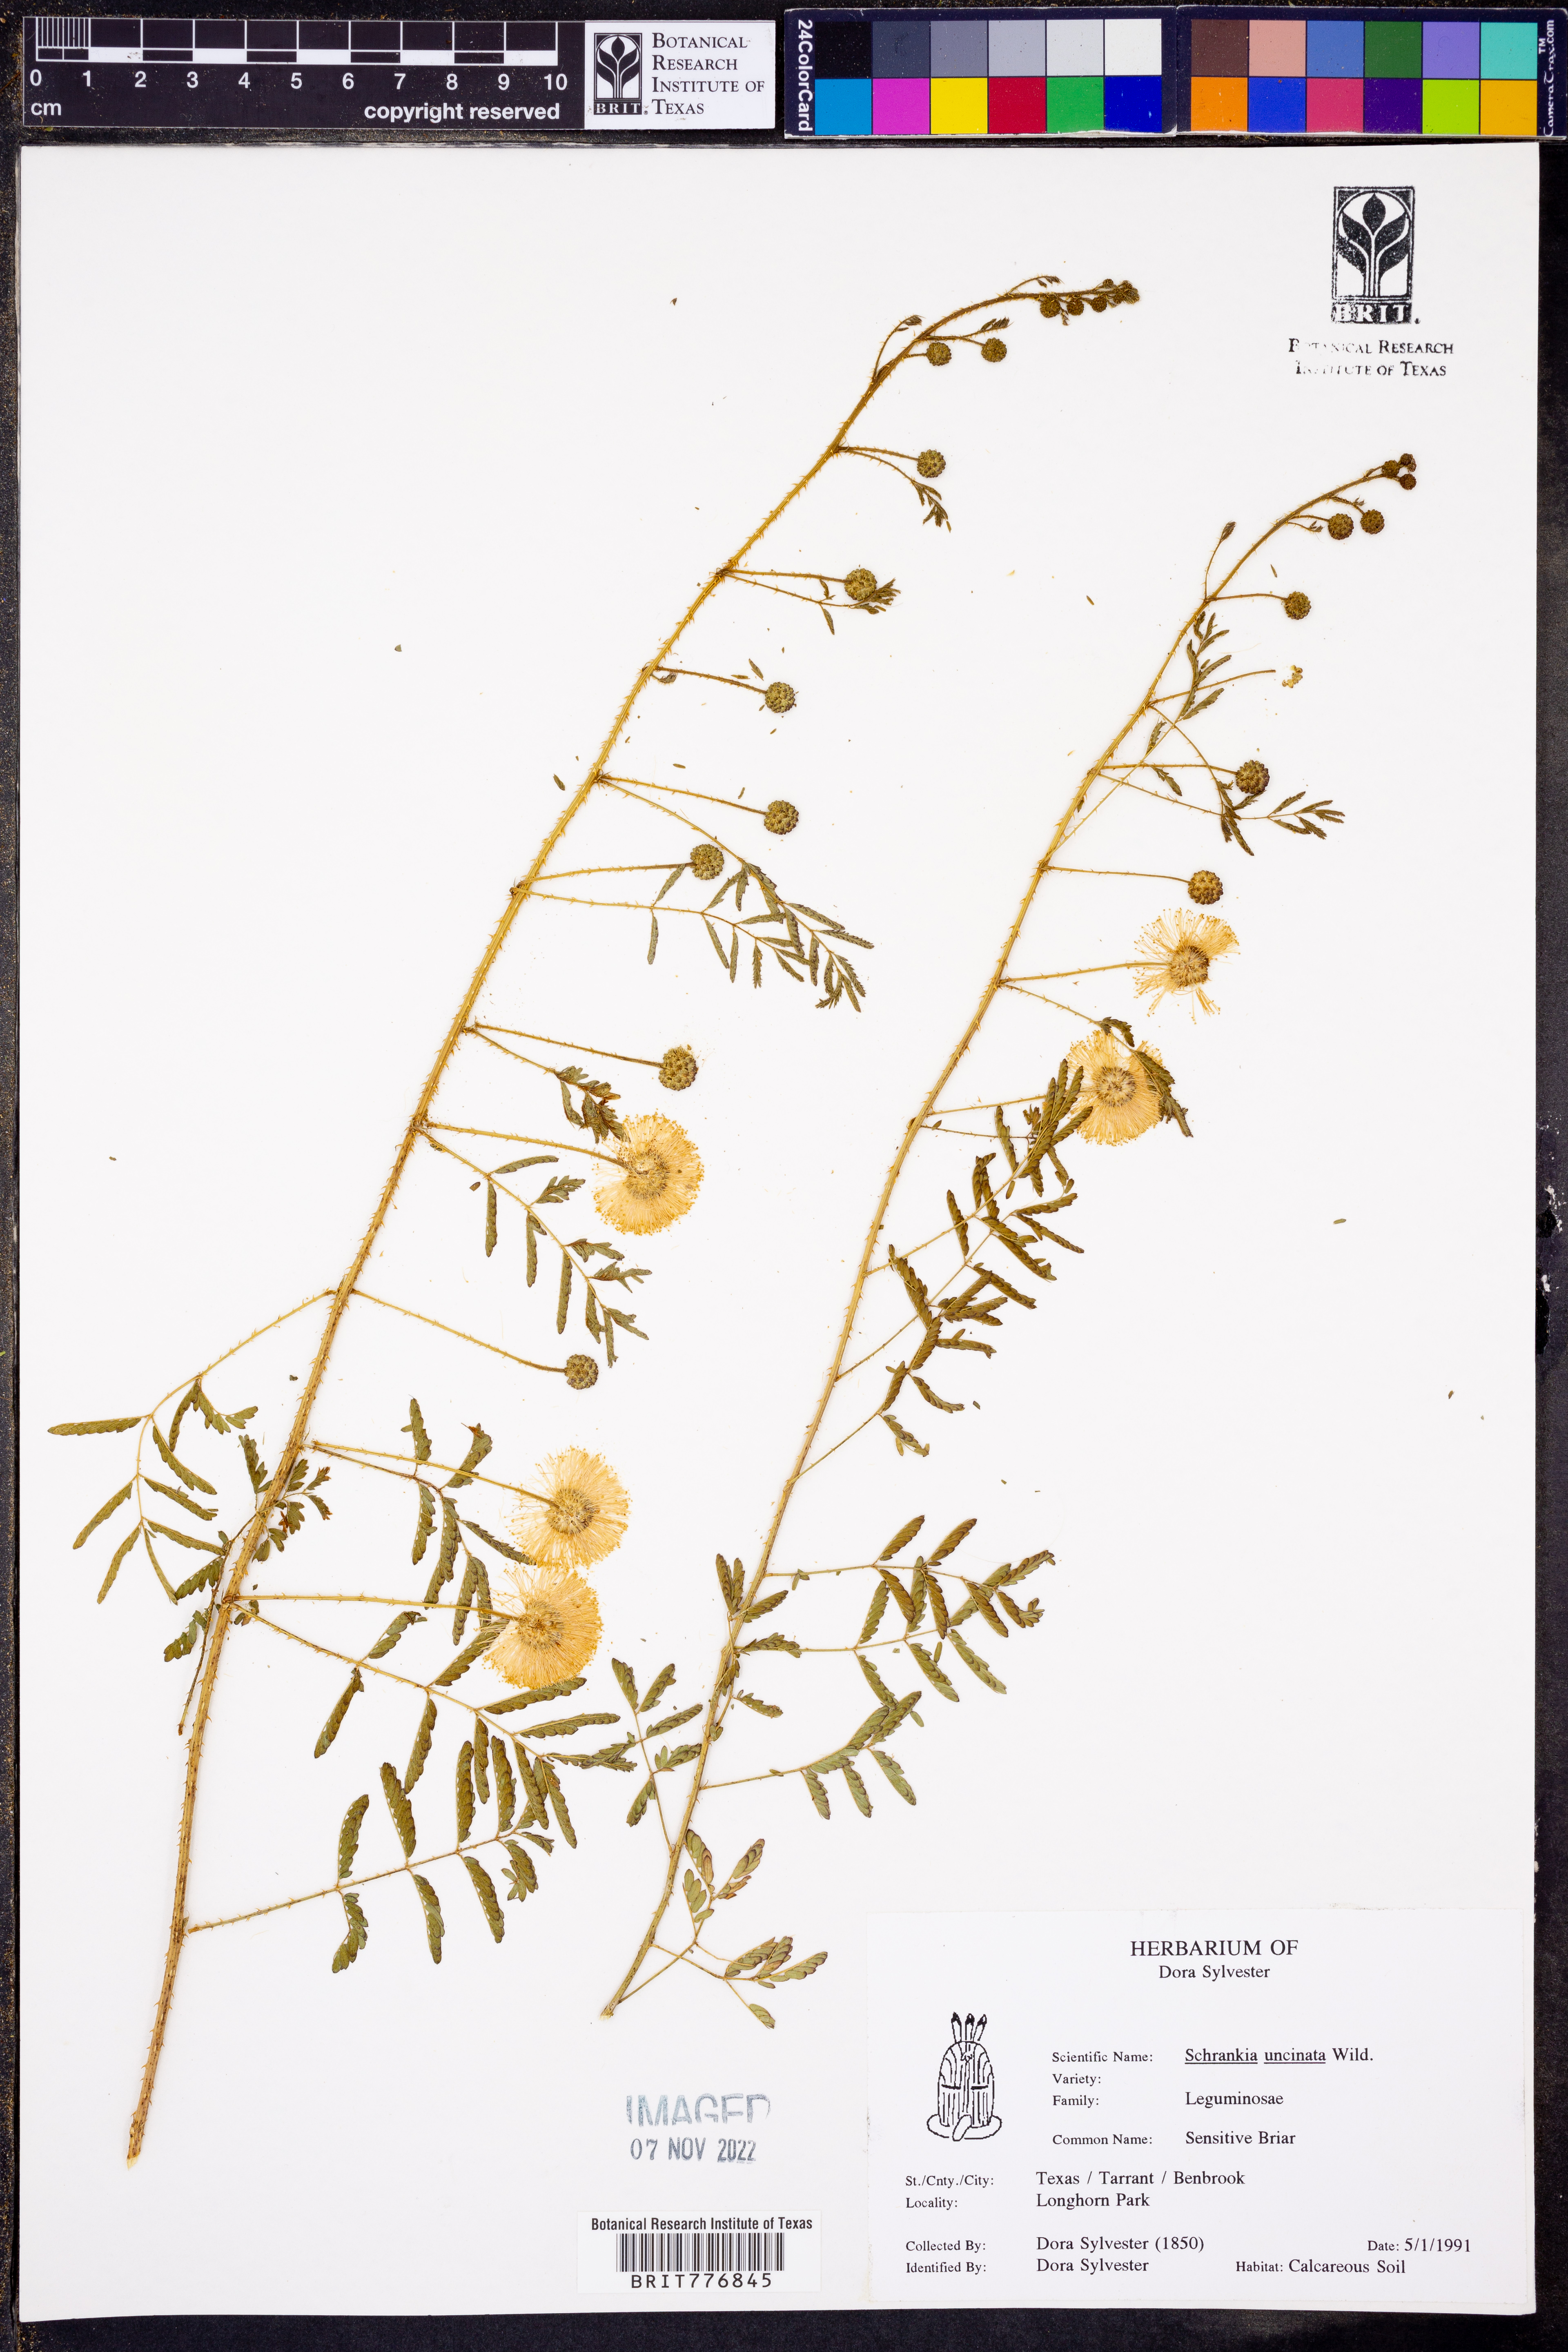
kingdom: Plantae
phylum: Tracheophyta
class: Magnoliopsida
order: Fabales
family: Fabaceae
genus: Mimosa
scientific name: Mimosa quadrivalvis
